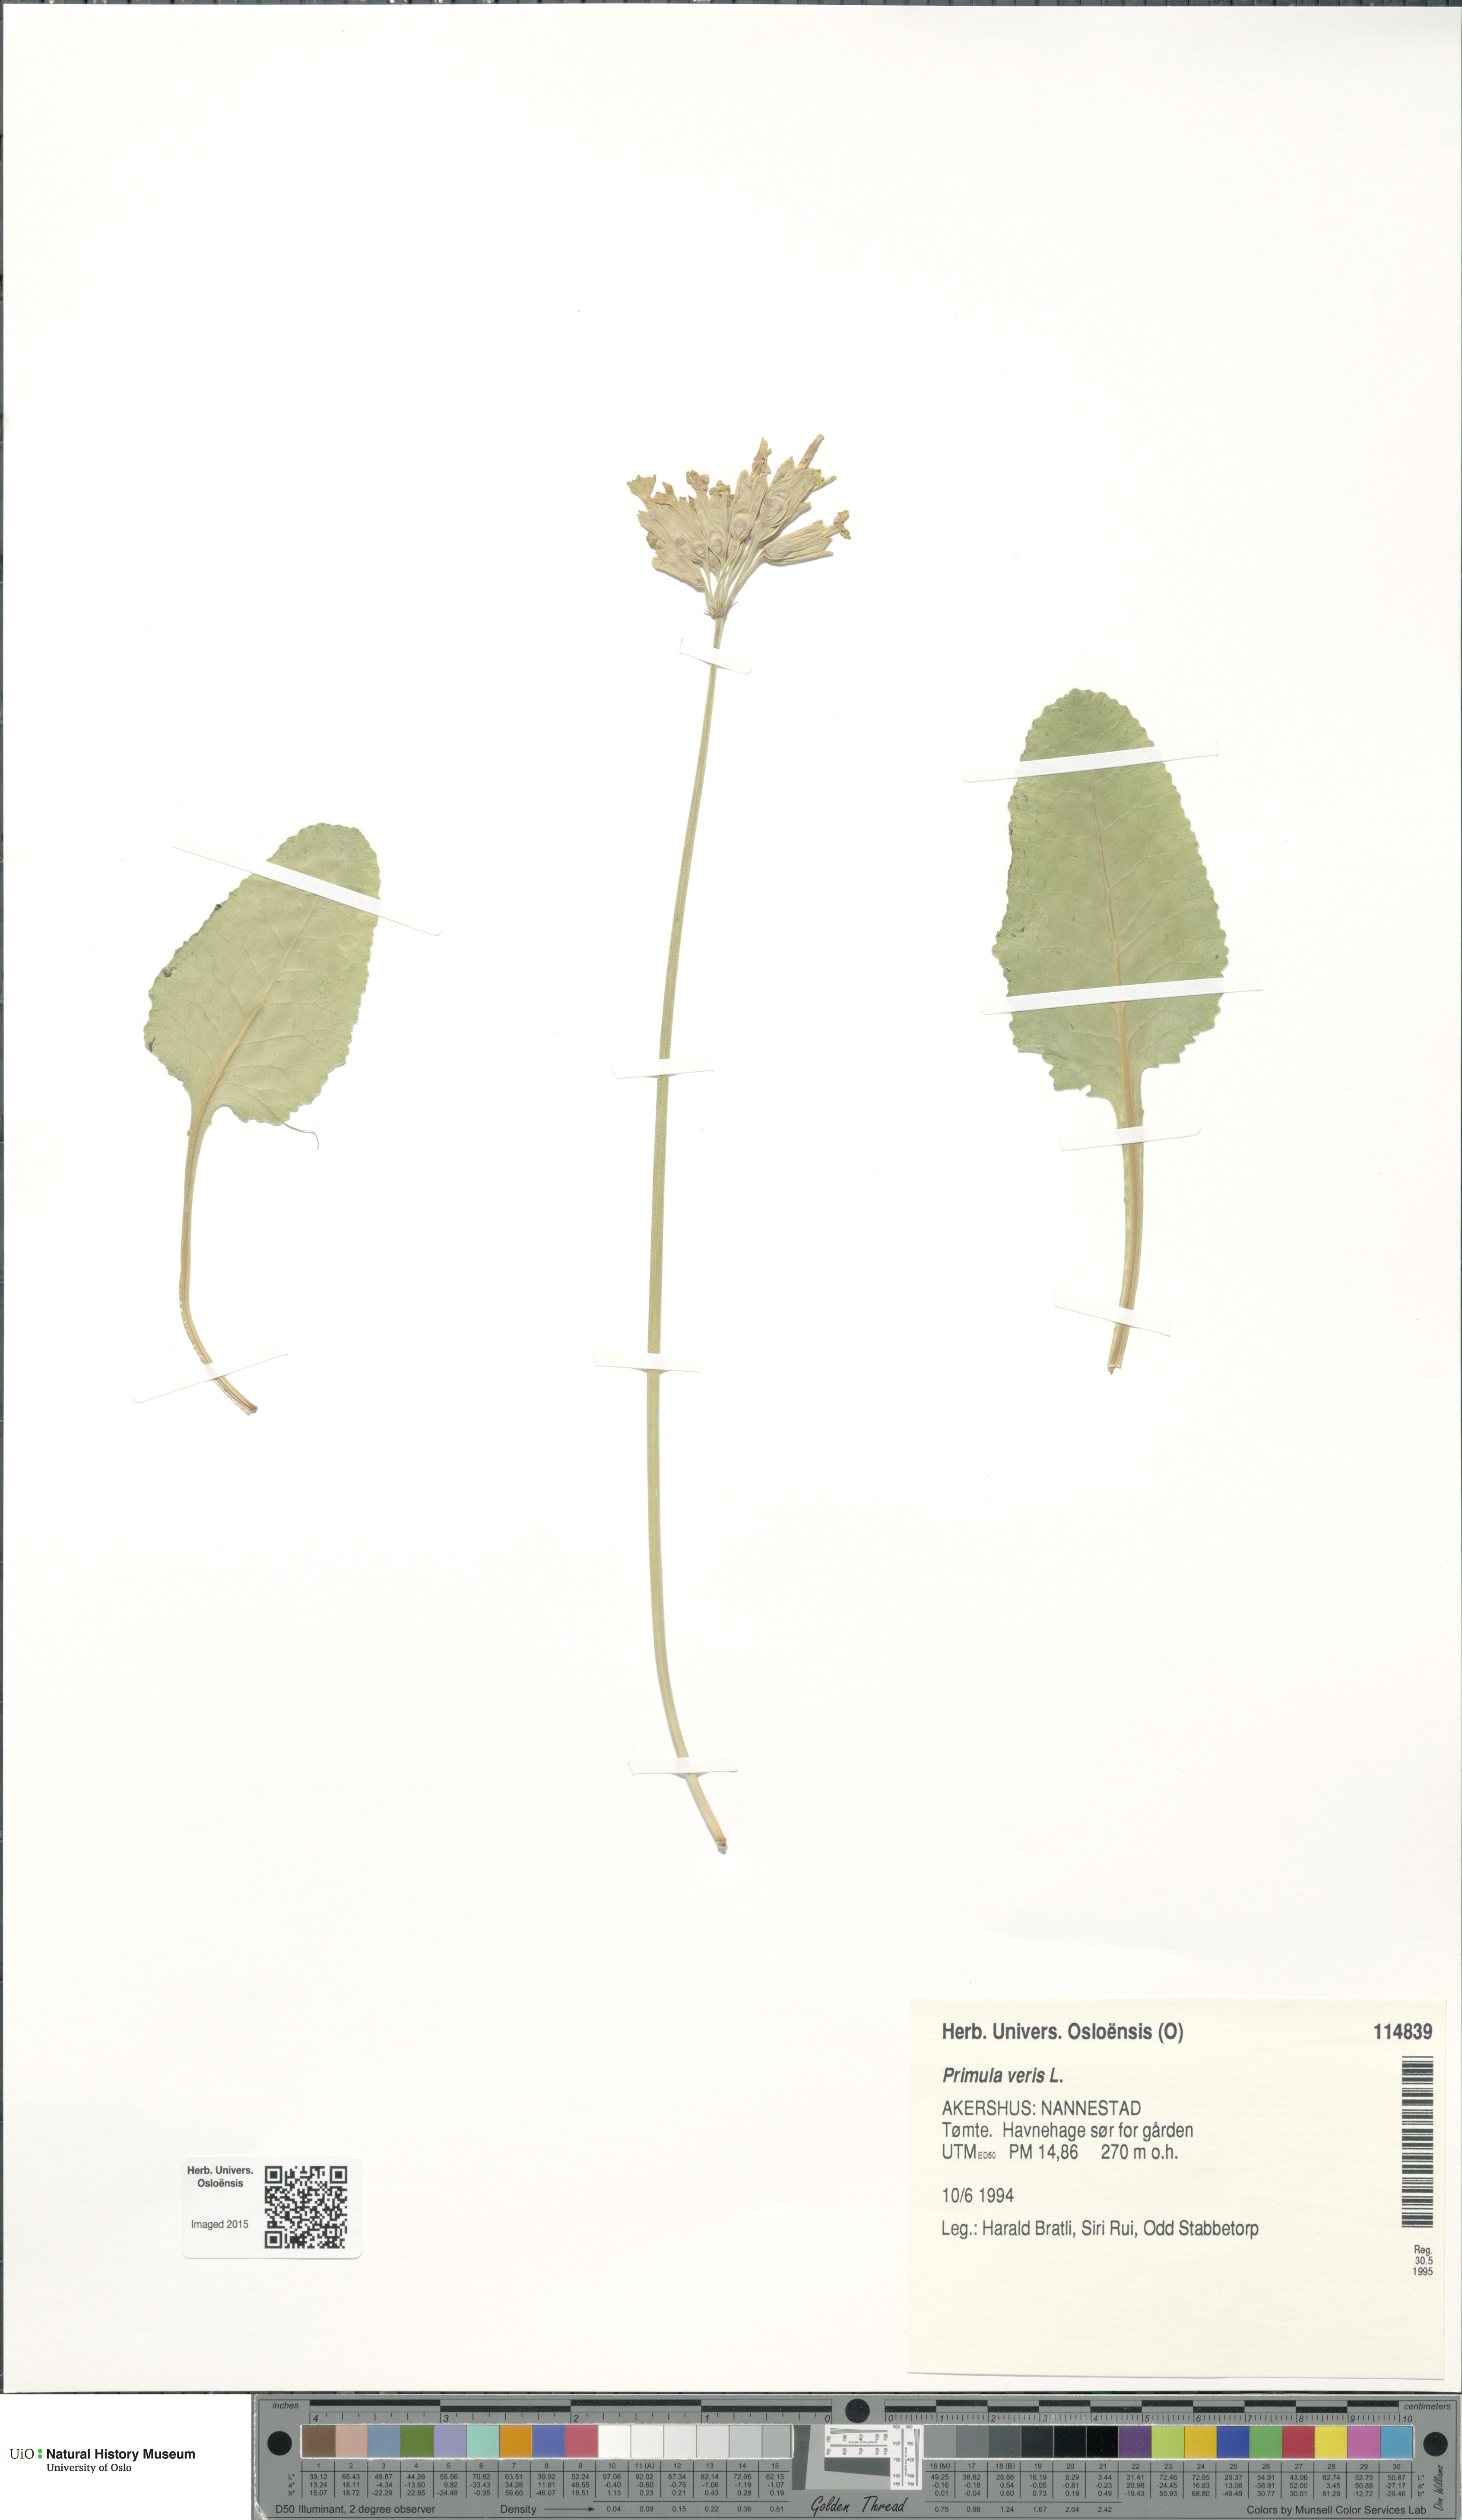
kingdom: Plantae
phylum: Tracheophyta
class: Magnoliopsida
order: Ericales
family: Primulaceae
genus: Primula
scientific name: Primula veris
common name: Cowslip
